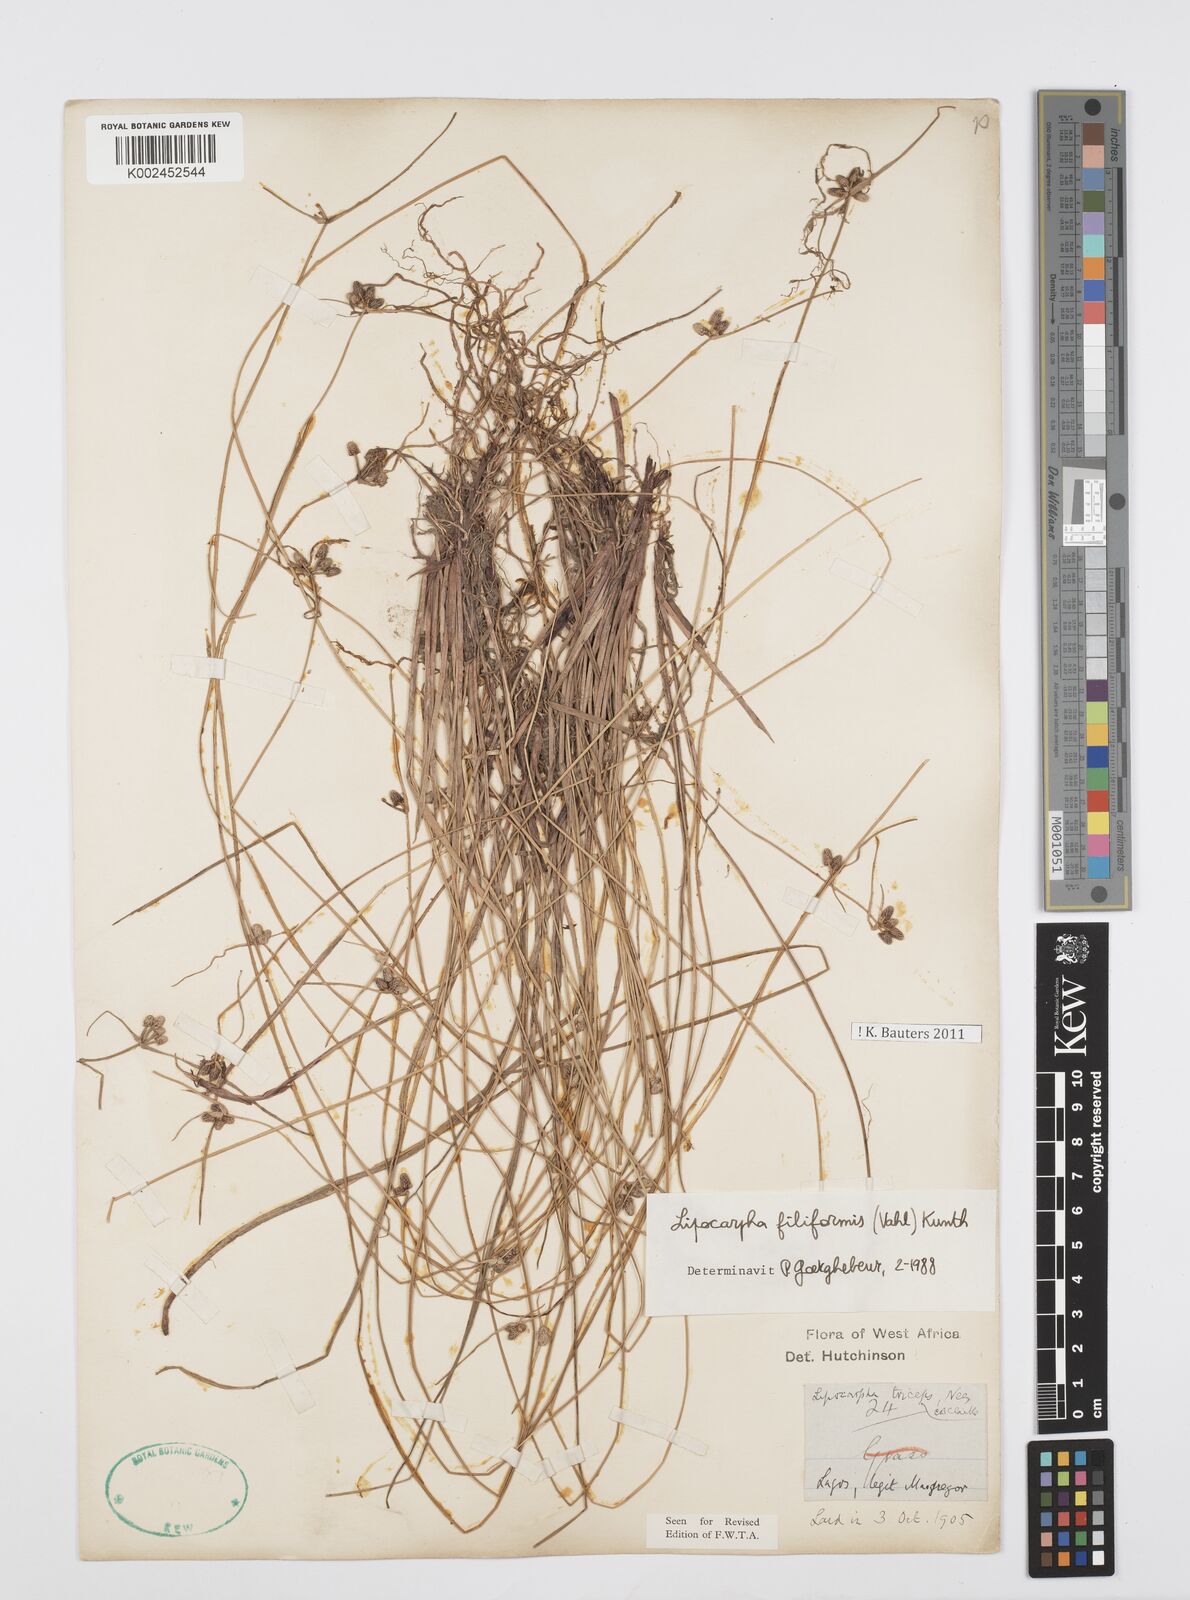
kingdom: Plantae
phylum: Tracheophyta
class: Liliopsida
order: Poales
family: Cyperaceae
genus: Cyperus
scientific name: Cyperus filiformis
